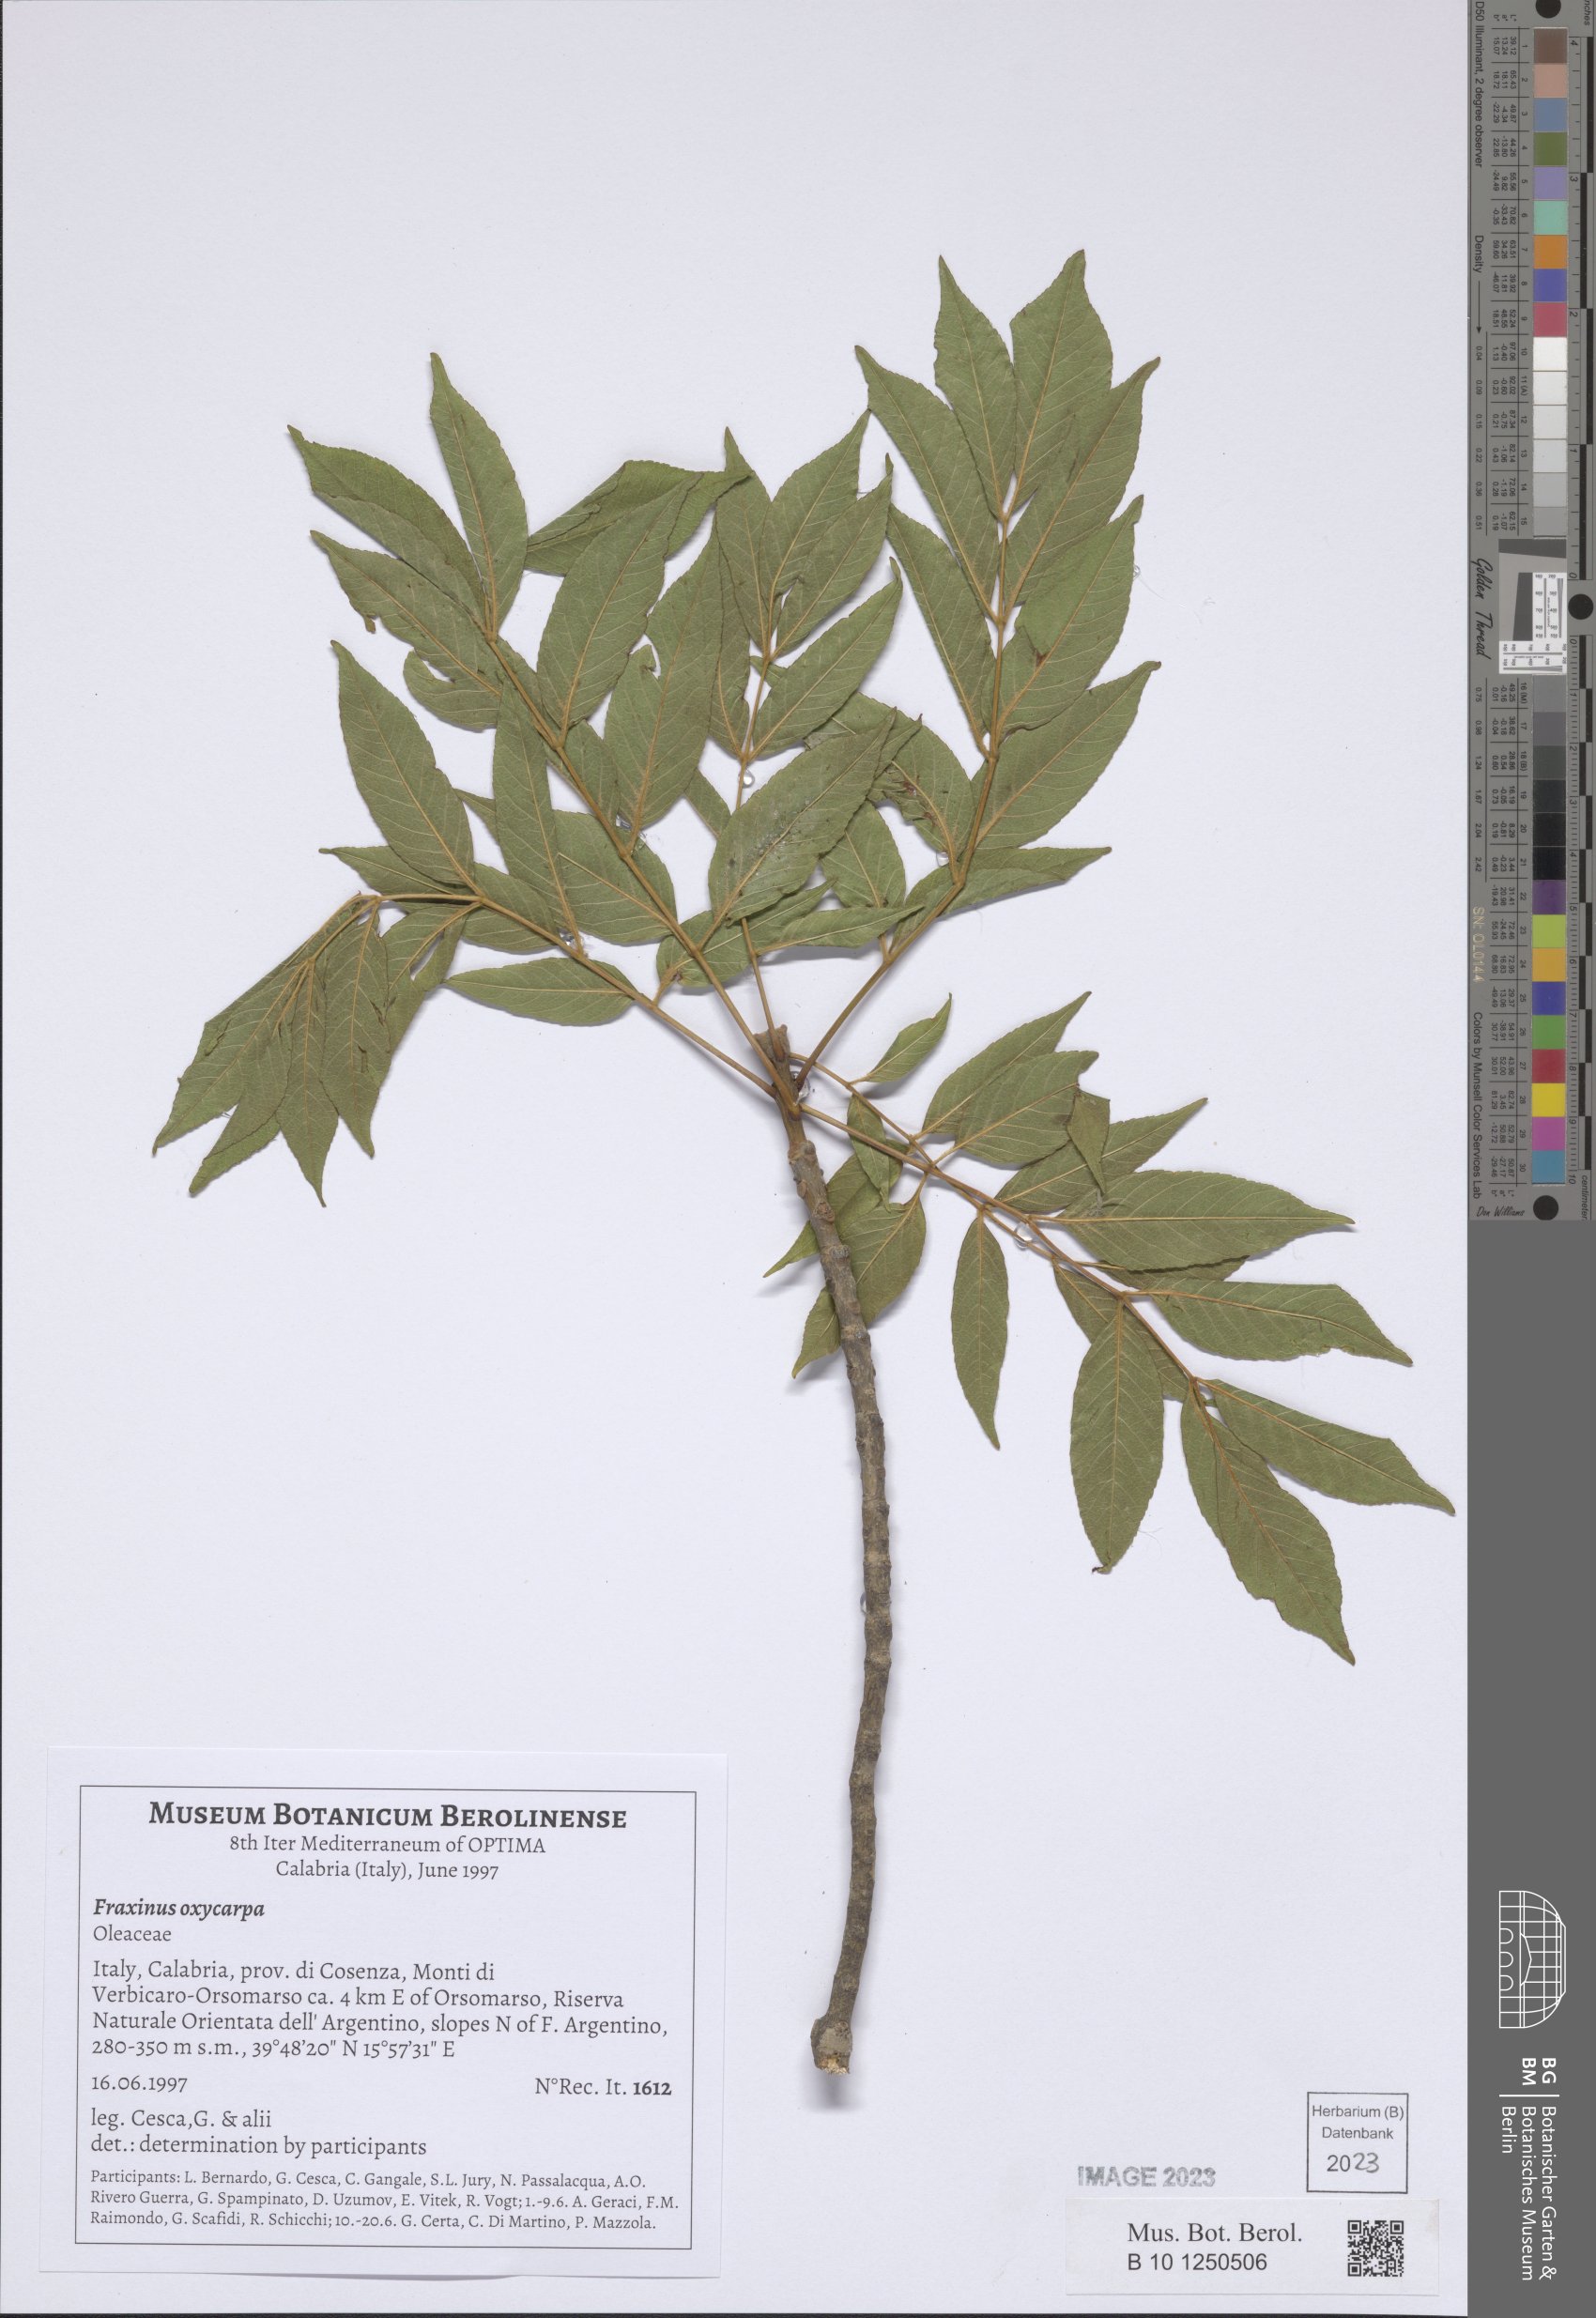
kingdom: Plantae
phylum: Tracheophyta
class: Magnoliopsida
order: Lamiales
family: Oleaceae
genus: Fraxinus
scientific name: Fraxinus angustifolia
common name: Narrow-leafed ash
